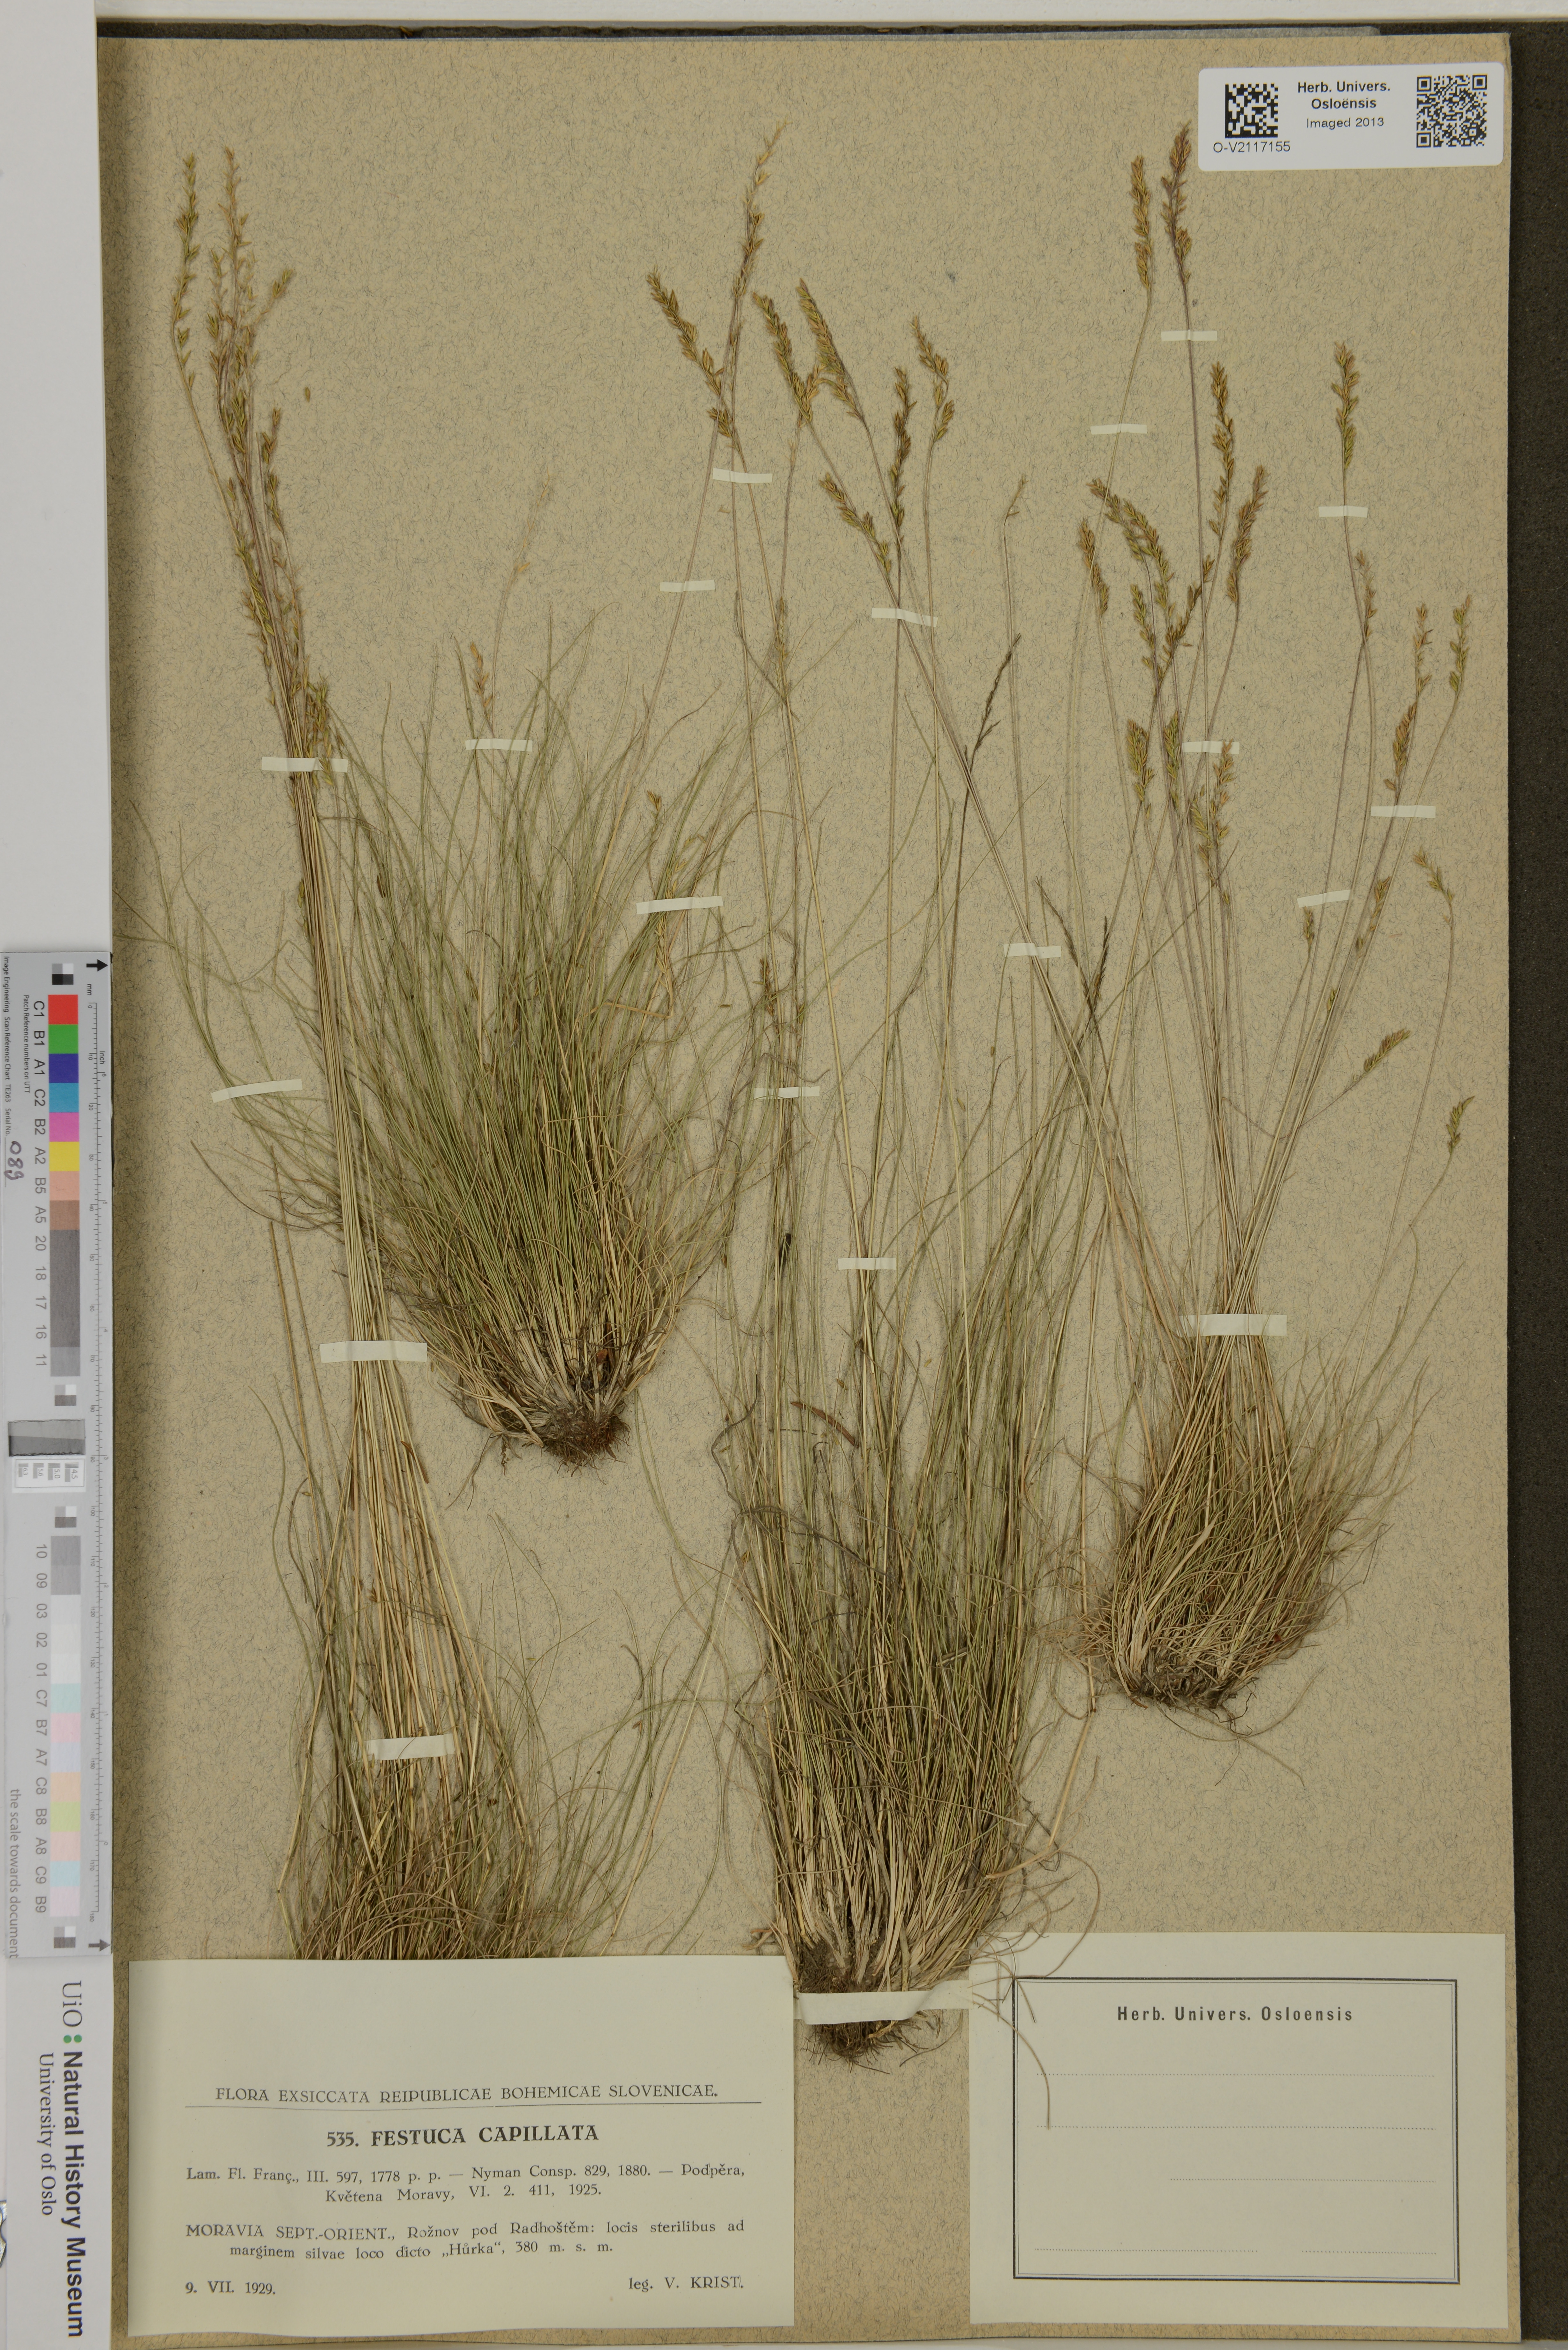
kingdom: Plantae
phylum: Tracheophyta
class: Liliopsida
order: Poales
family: Poaceae
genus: Festuca
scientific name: Festuca filiformis
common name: Fine-leaved sheep's-fescue
